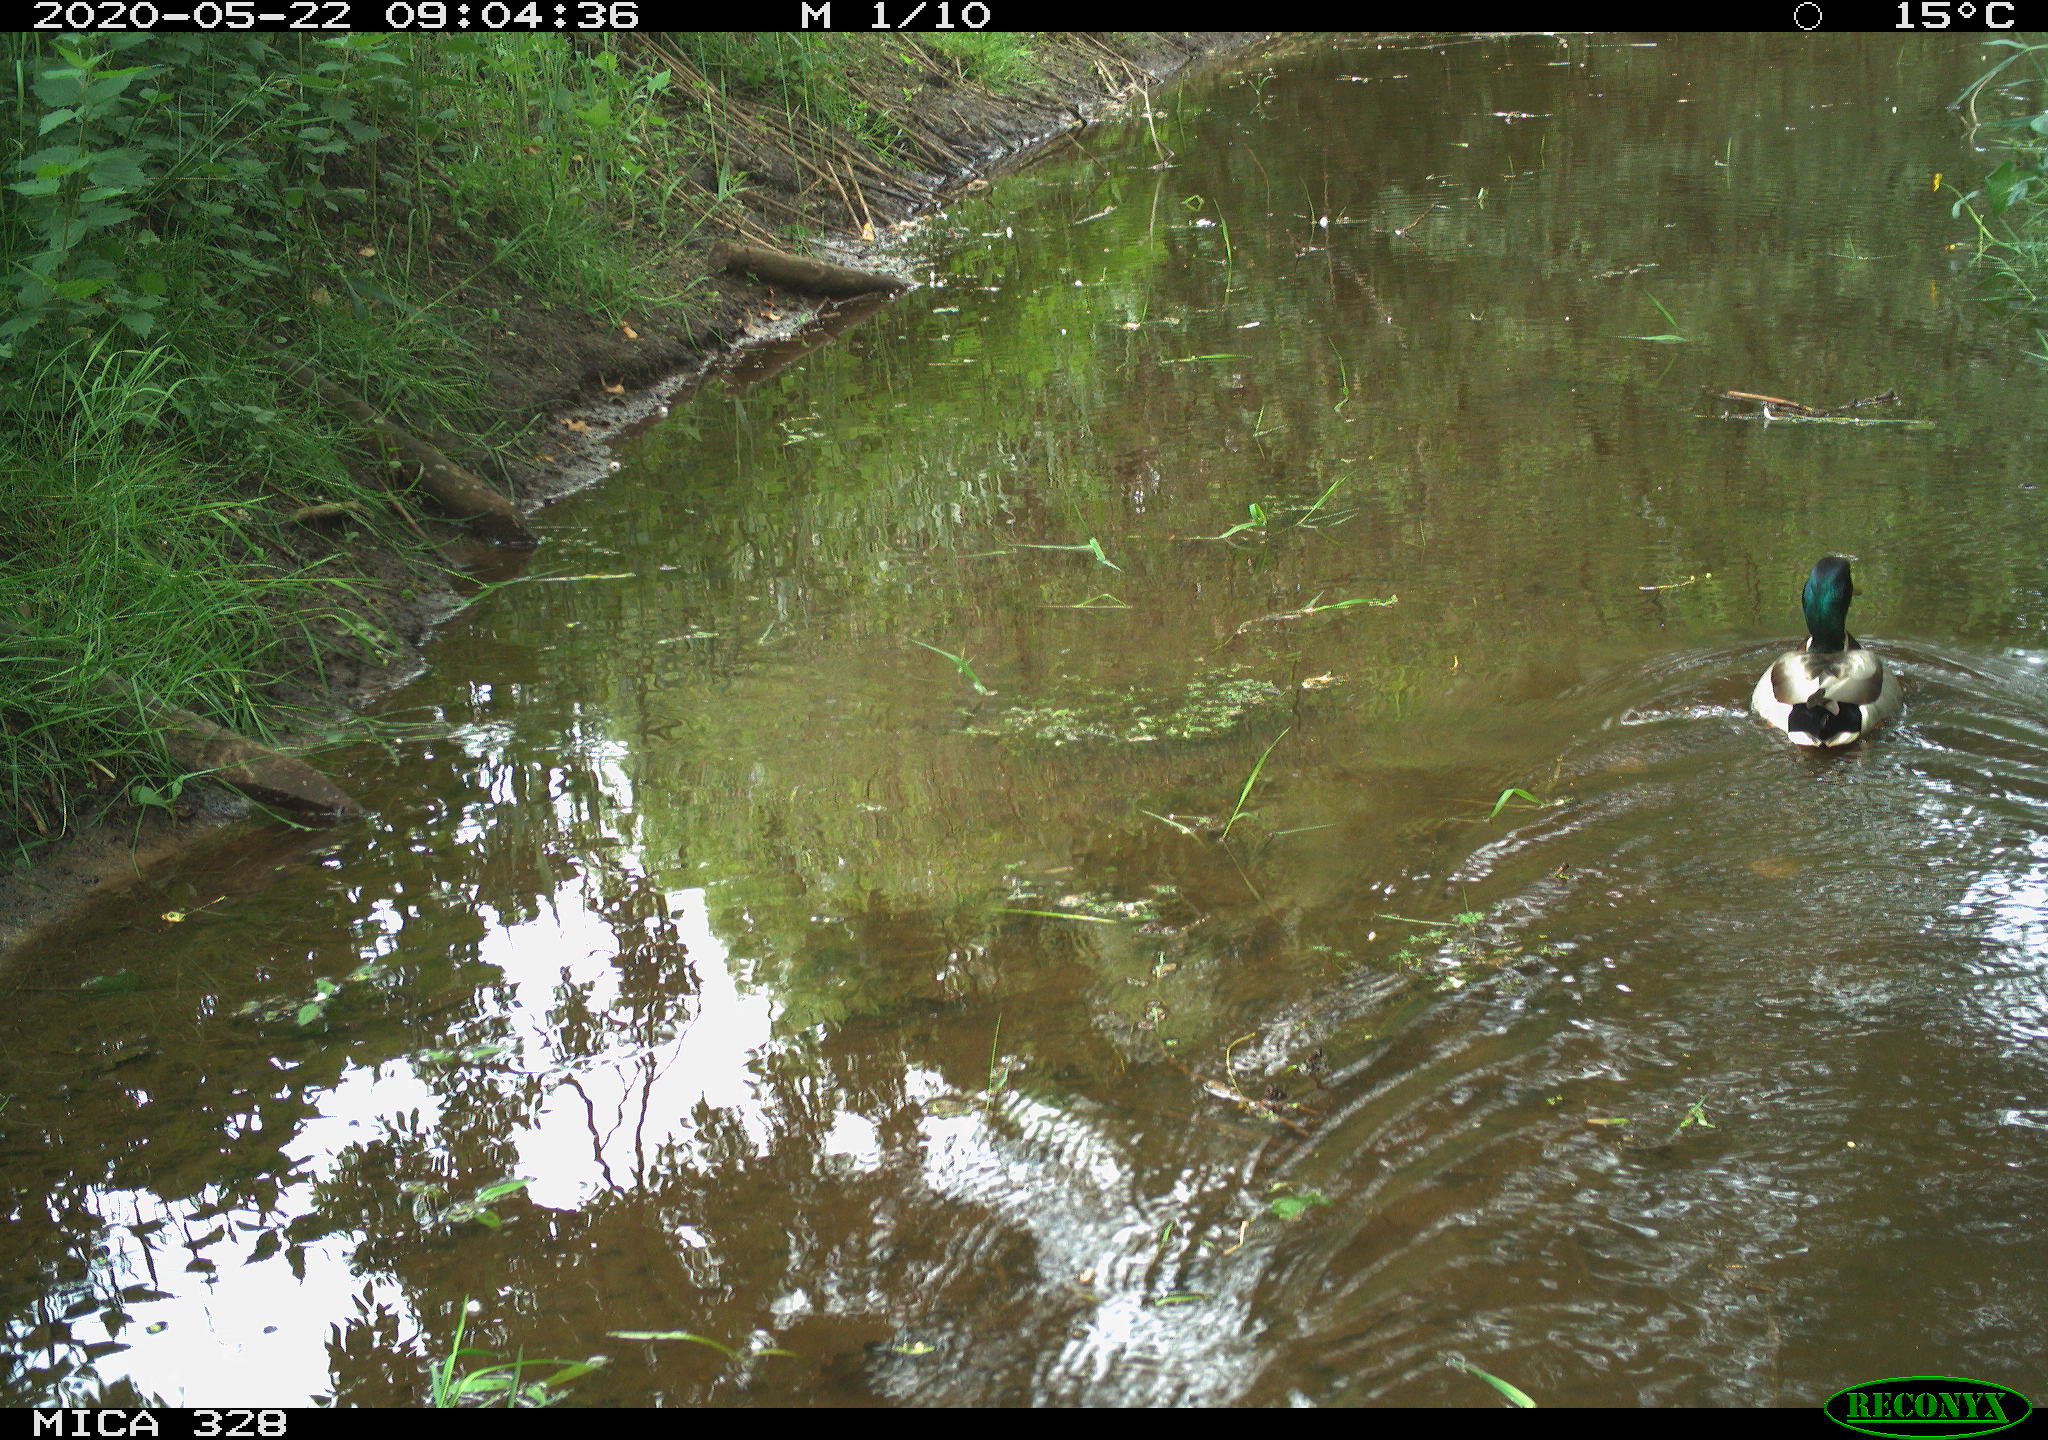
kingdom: Animalia
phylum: Chordata
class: Aves
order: Anseriformes
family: Anatidae
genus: Anas
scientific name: Anas platyrhynchos
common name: Mallard
